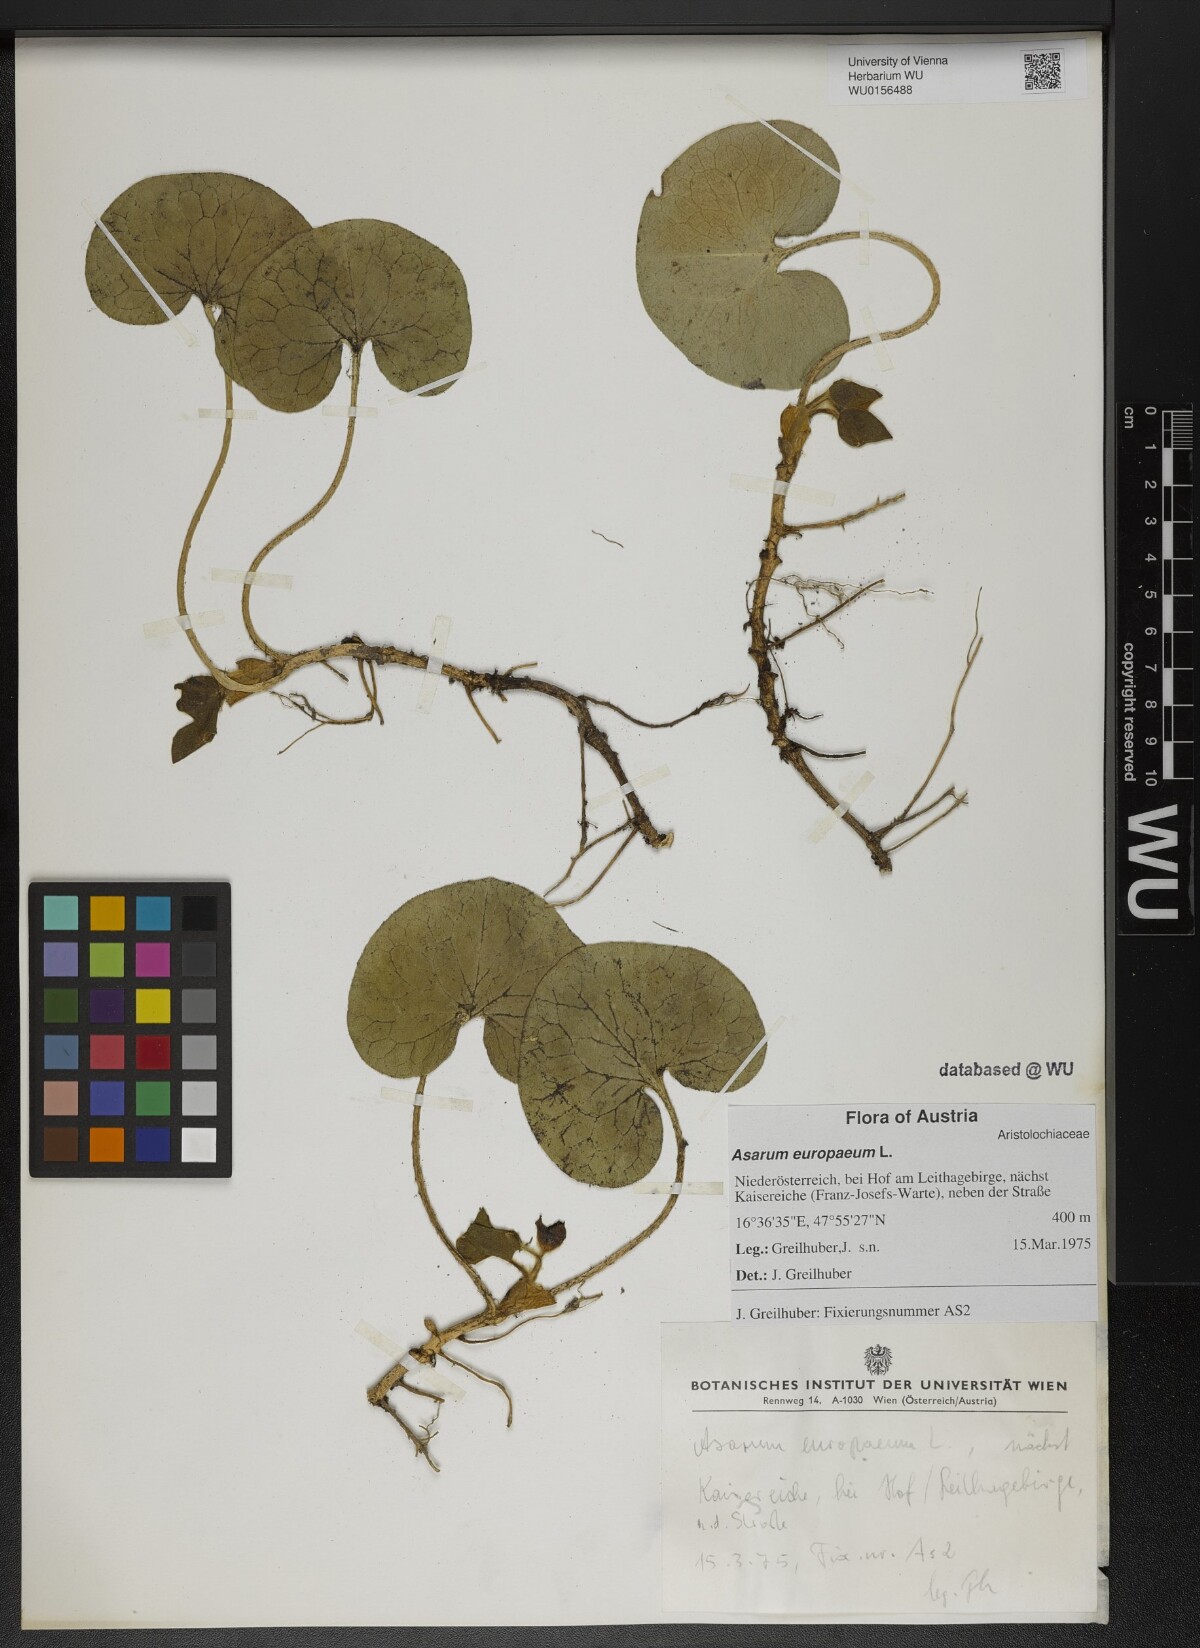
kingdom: Plantae
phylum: Tracheophyta
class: Magnoliopsida
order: Piperales
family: Aristolochiaceae
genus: Asarum
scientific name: Asarum europaeum
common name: Asarabacca
